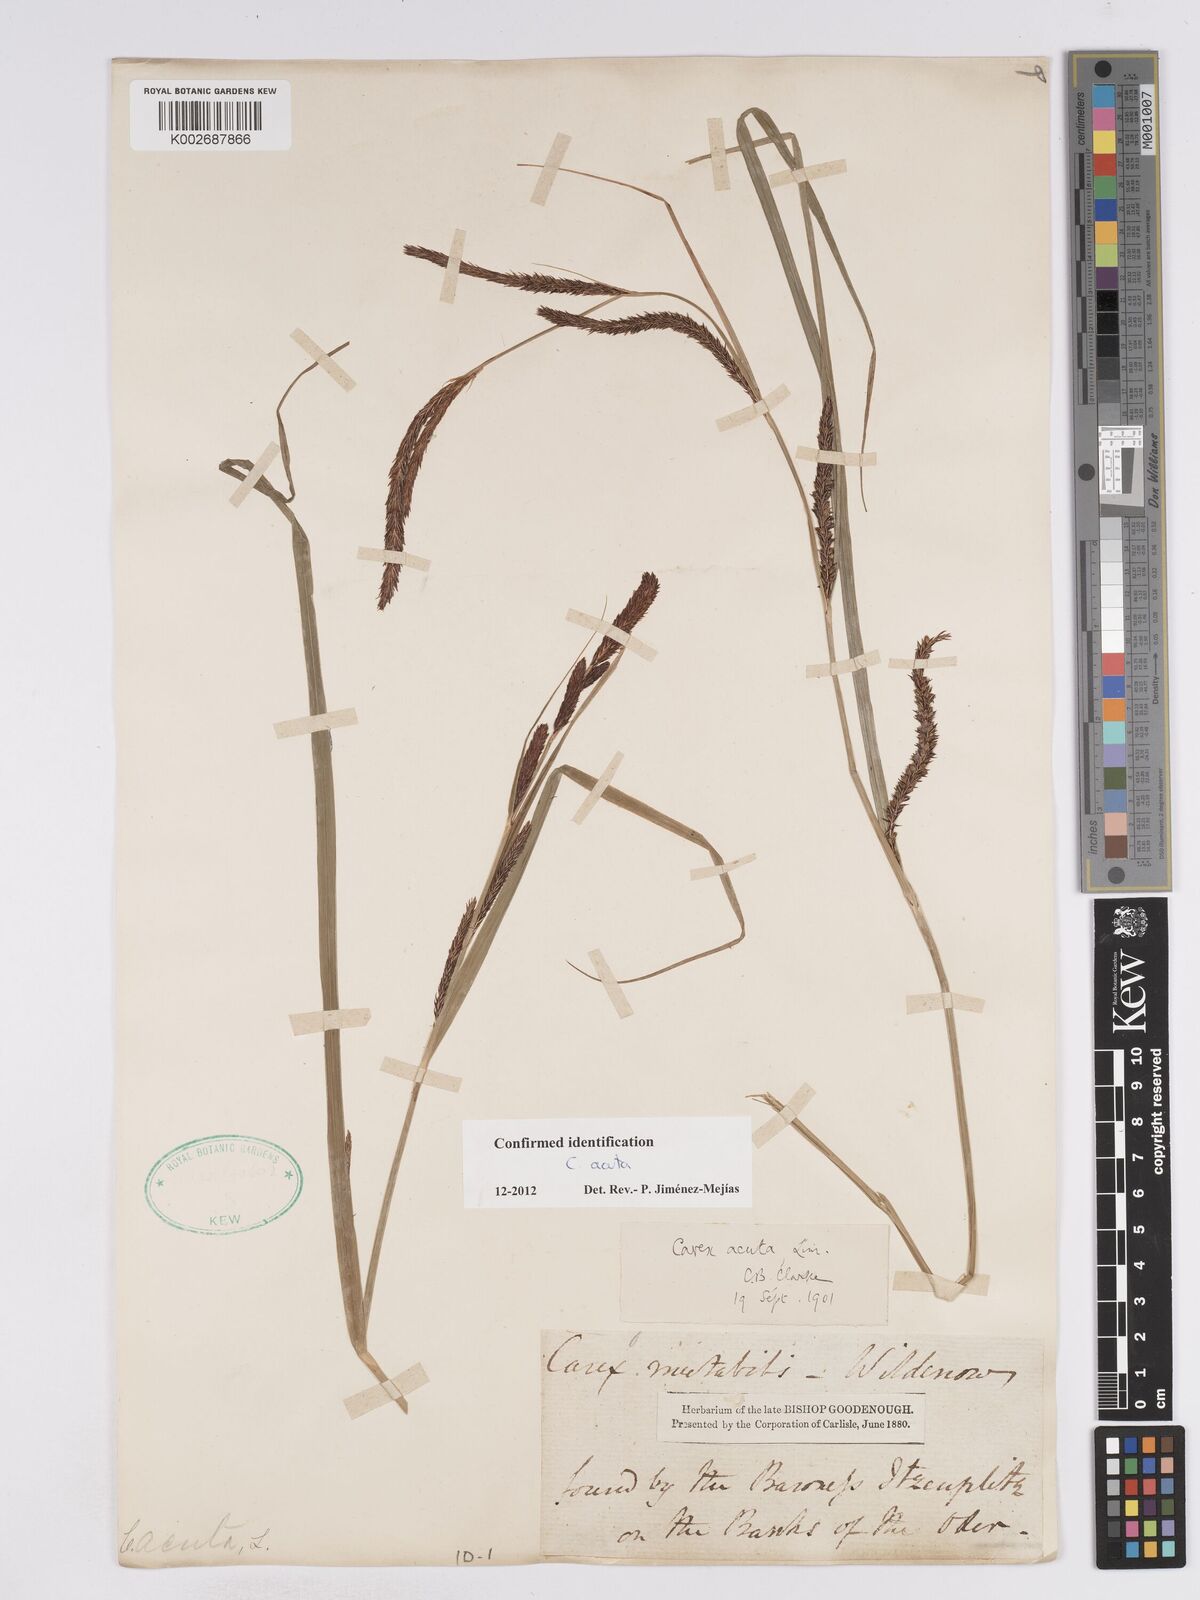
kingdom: Plantae
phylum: Tracheophyta
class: Liliopsida
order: Poales
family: Cyperaceae
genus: Carex
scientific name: Carex acuta
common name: Slender tufted-sedge
